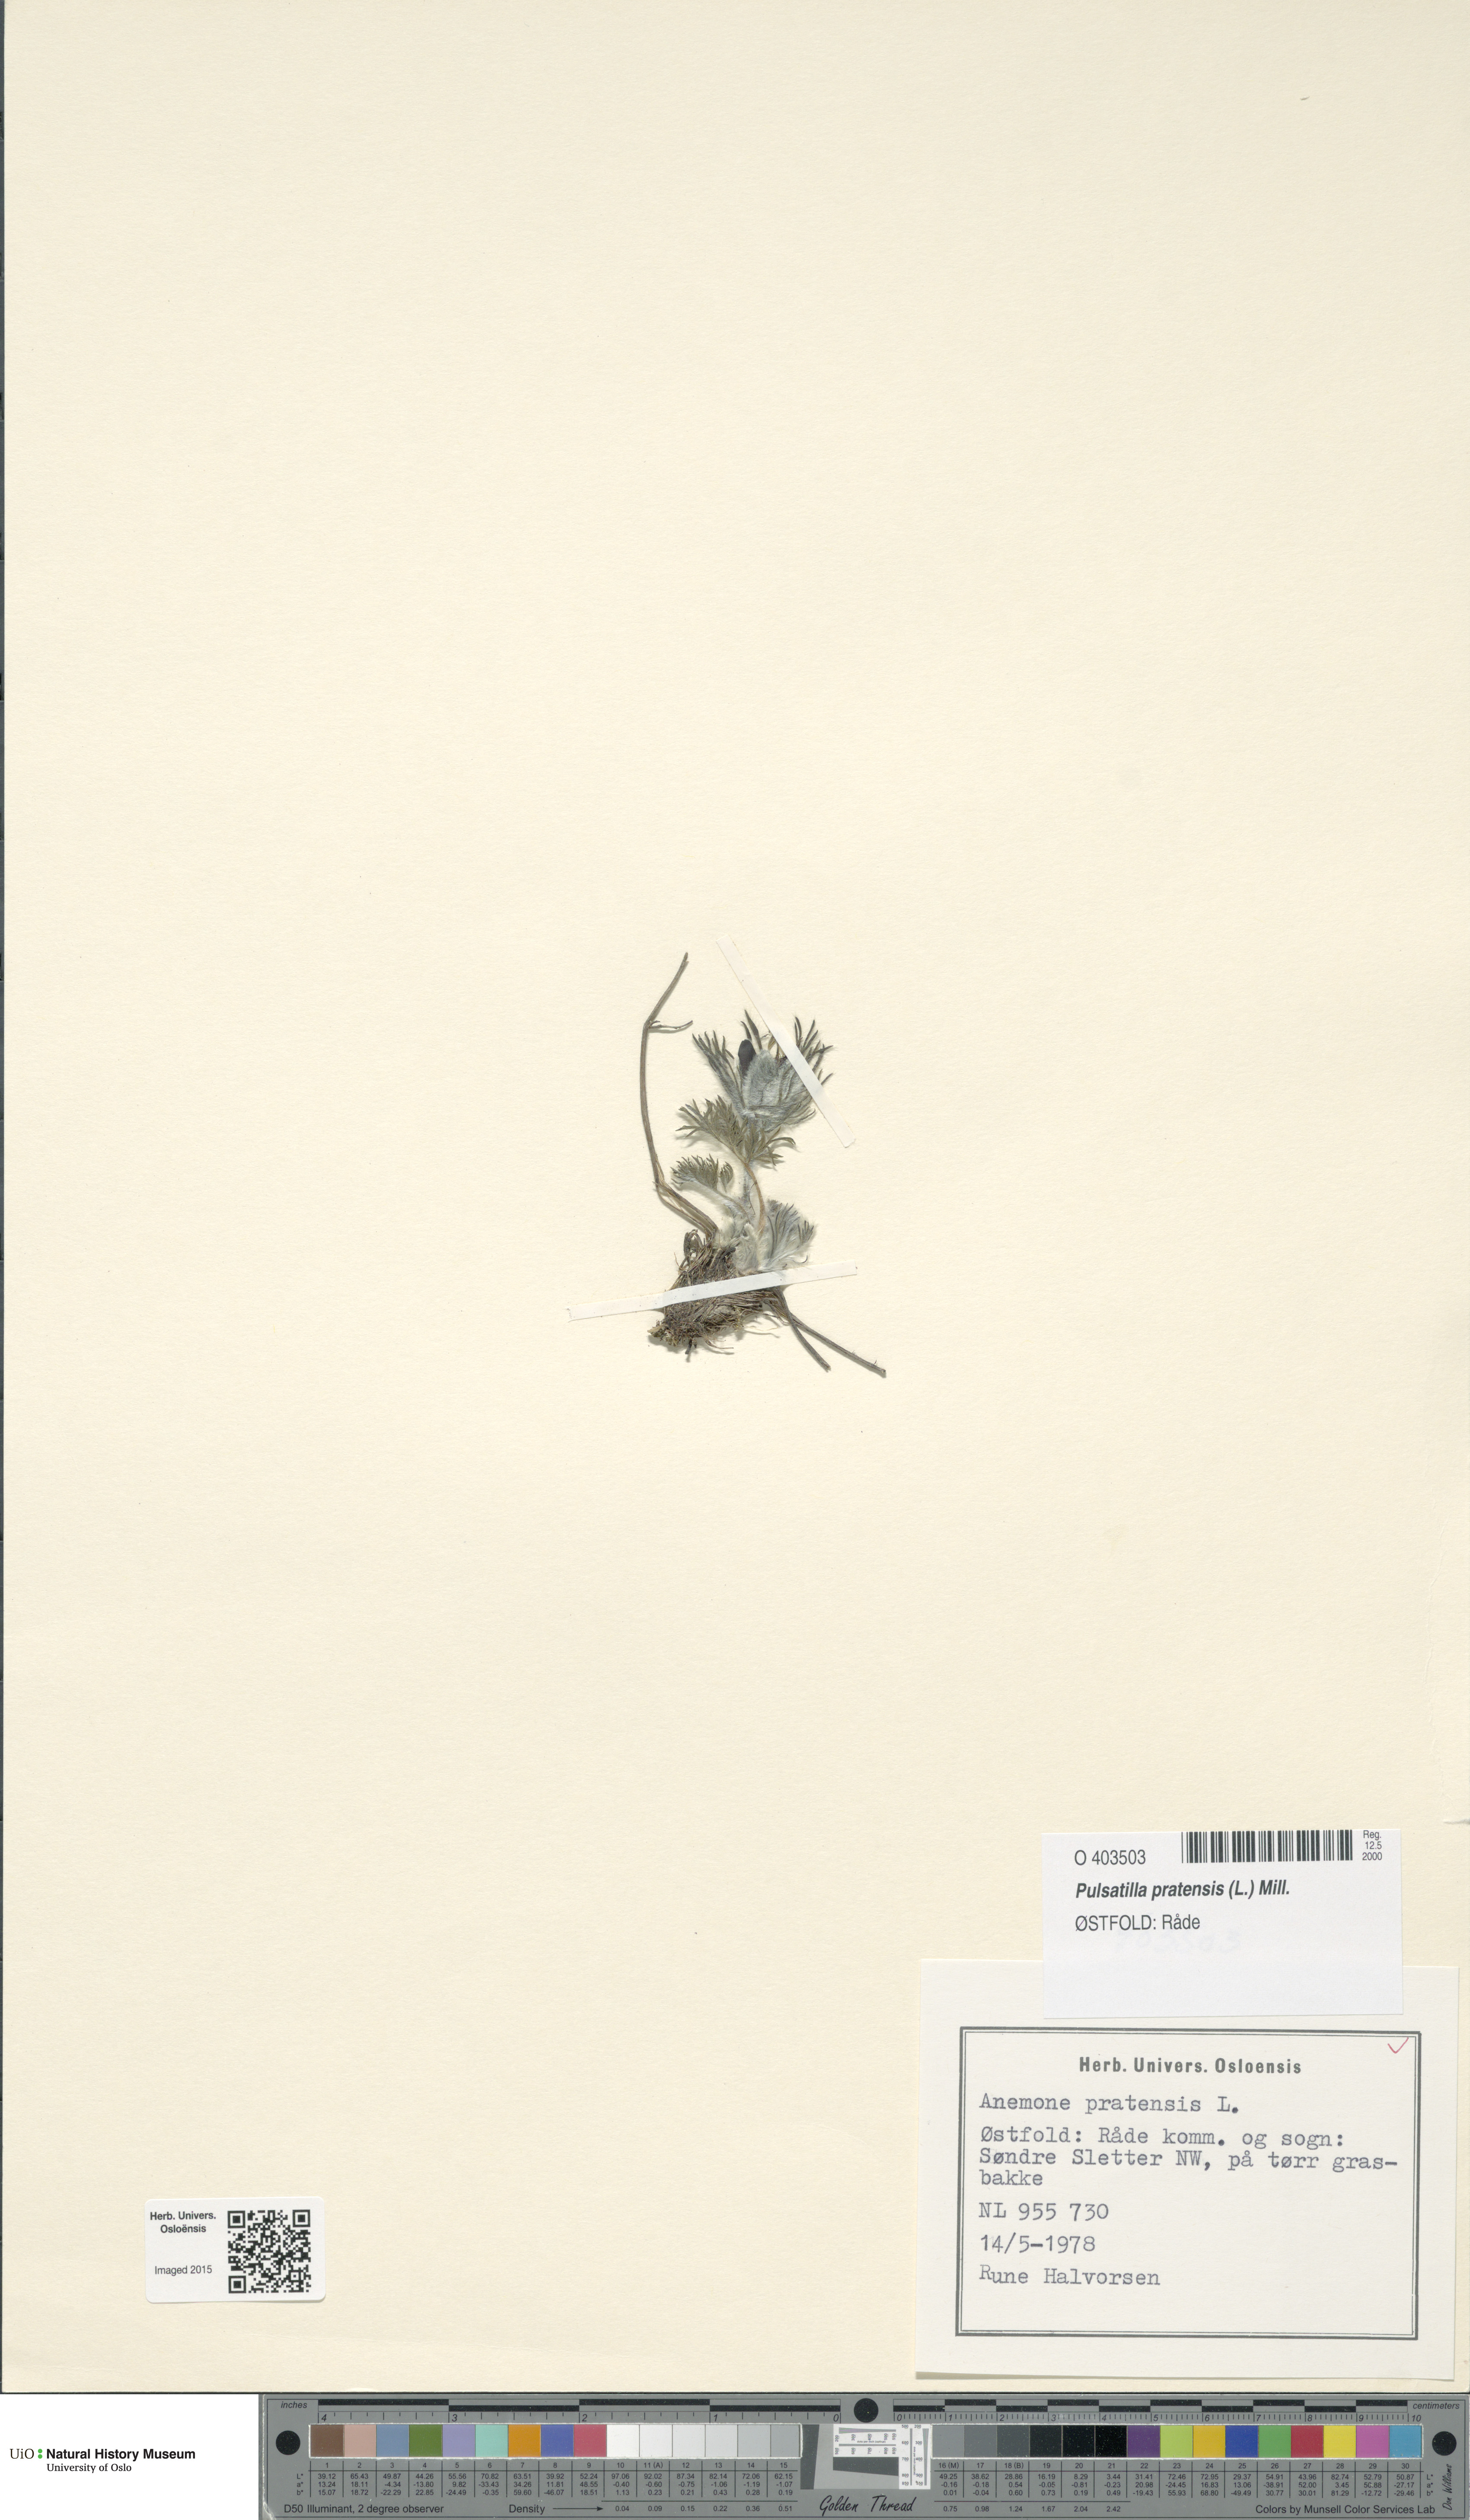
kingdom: Plantae
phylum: Tracheophyta
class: Magnoliopsida
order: Ranunculales
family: Ranunculaceae
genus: Pulsatilla
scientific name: Pulsatilla pratensis
